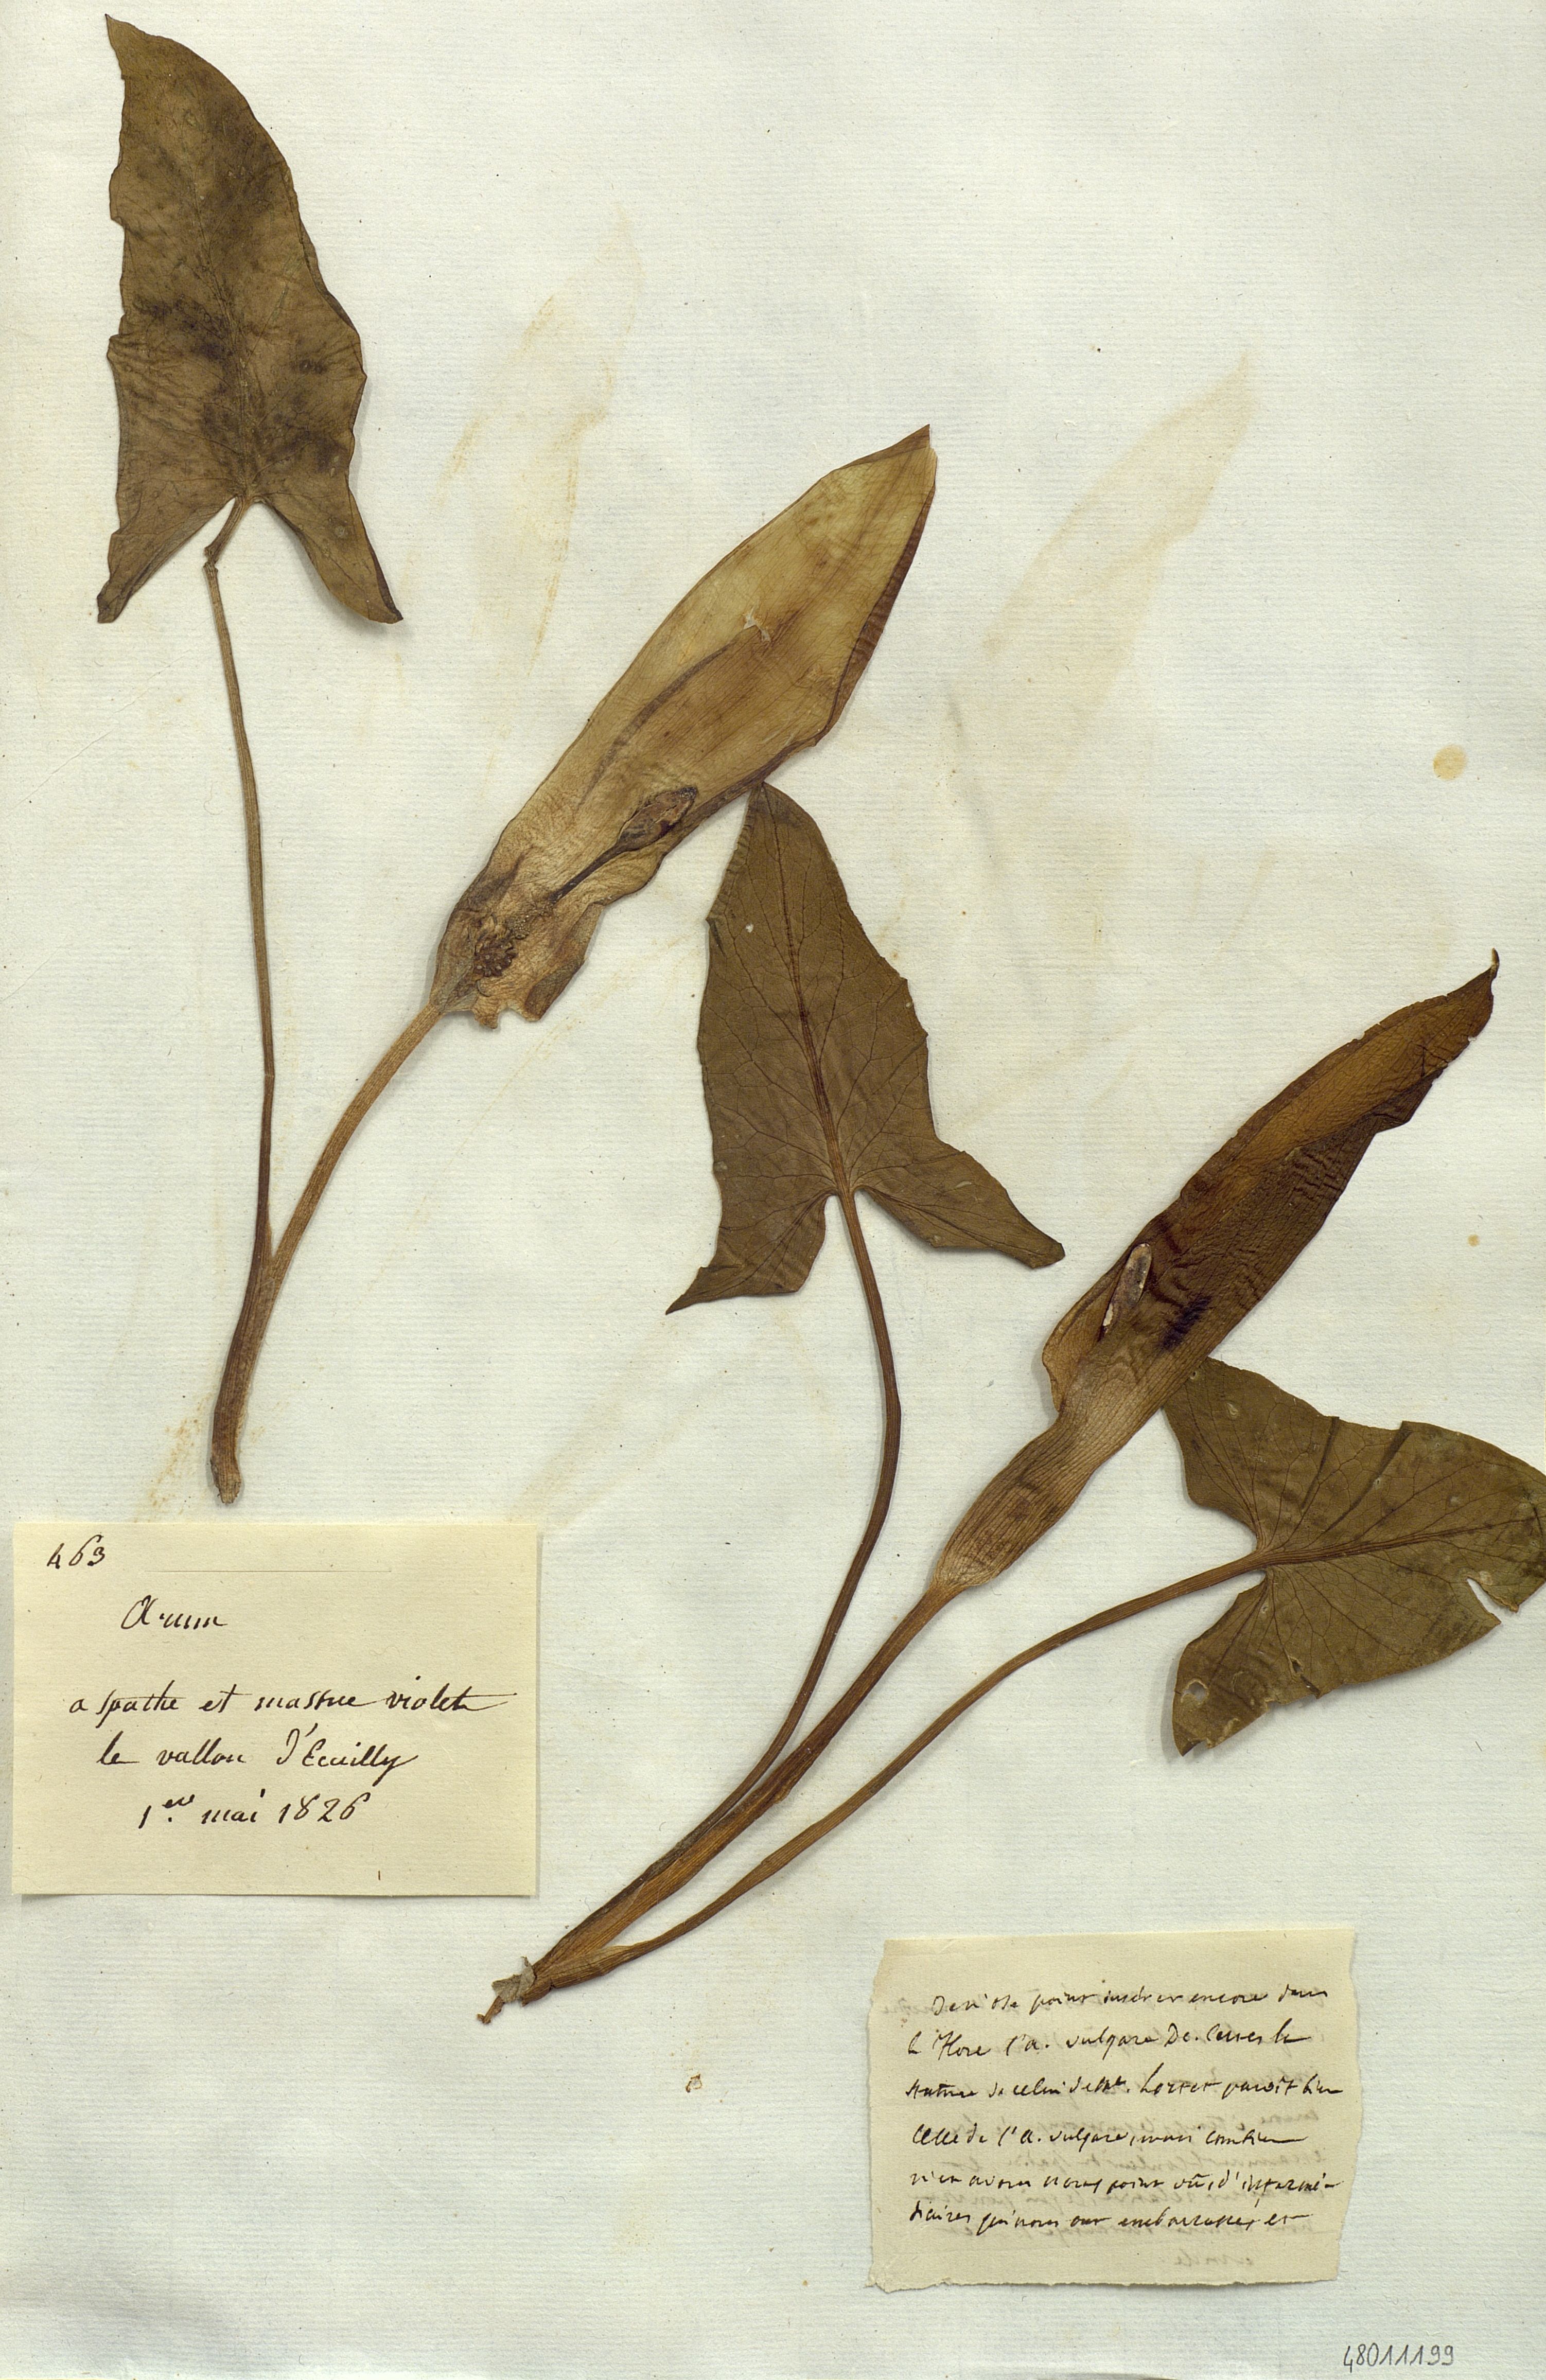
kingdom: Plantae
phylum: Tracheophyta
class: Liliopsida
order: Alismatales
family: Araceae
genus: Arum
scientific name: Arum
